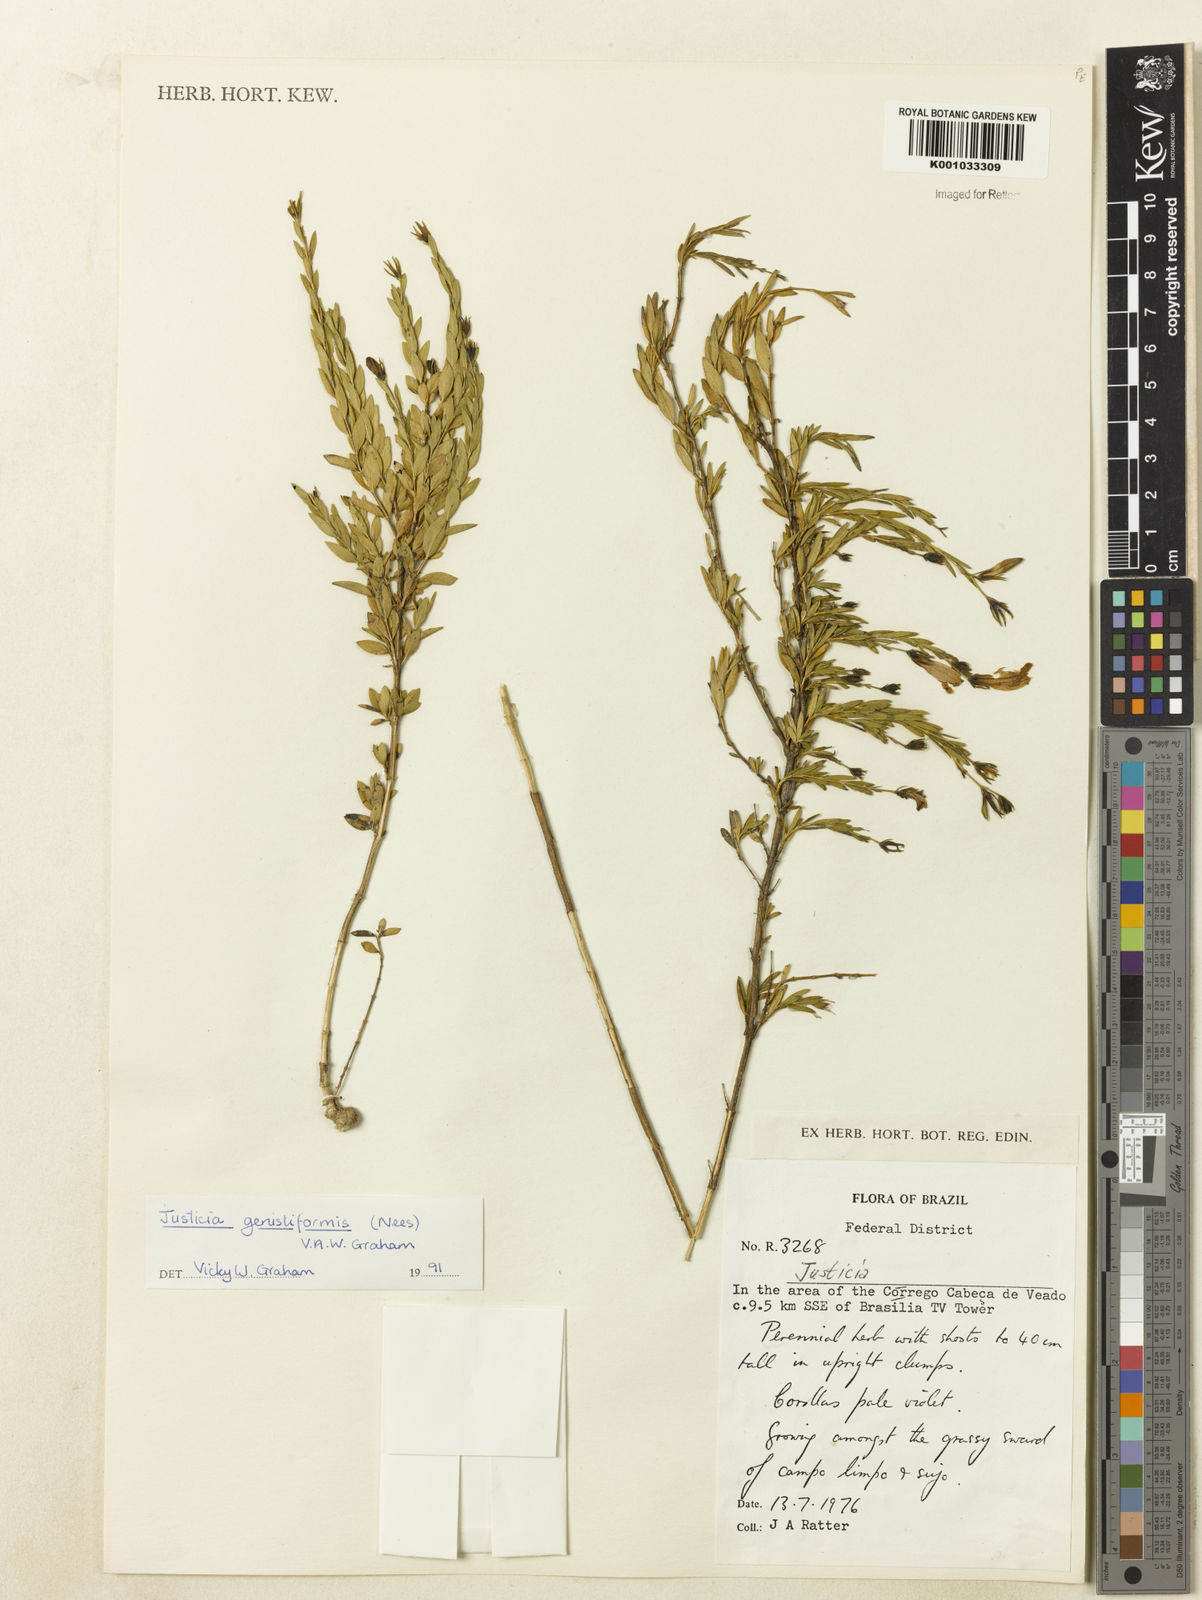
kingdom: Plantae
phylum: Tracheophyta
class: Magnoliopsida
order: Lamiales
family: Acanthaceae
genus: Justicia
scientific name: Justicia
